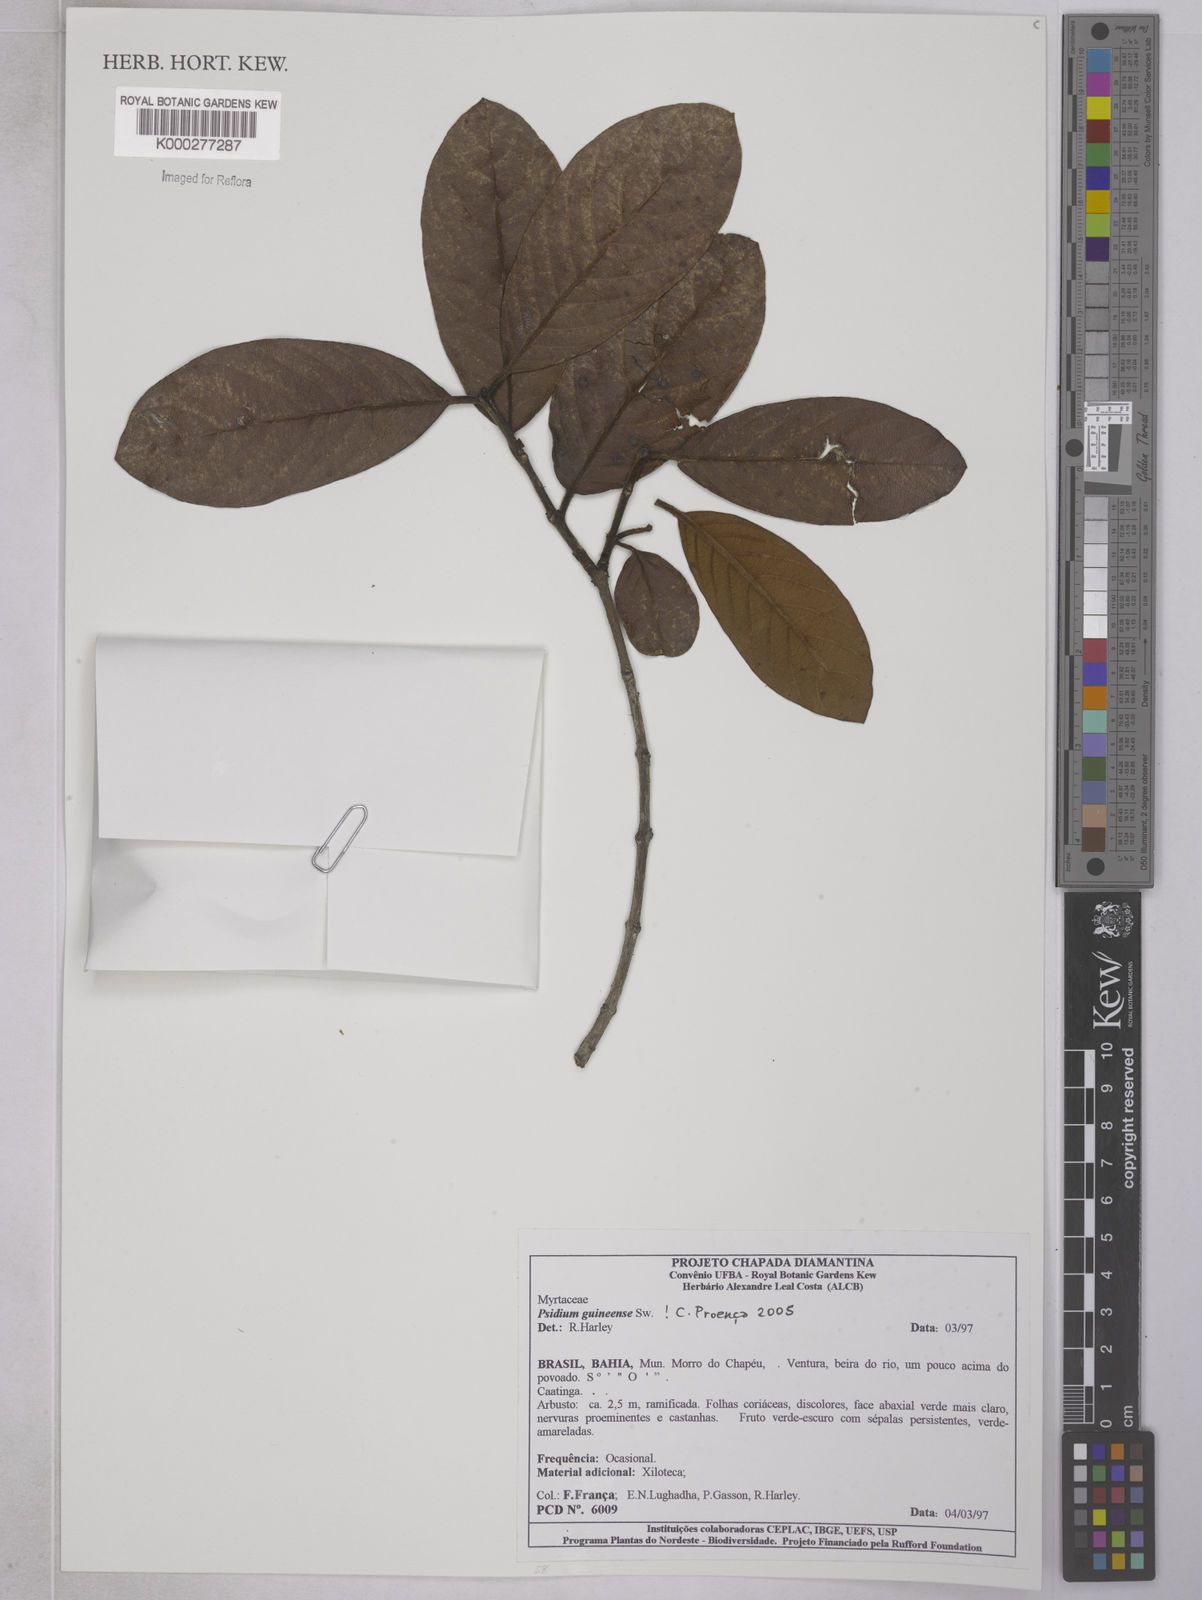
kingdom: Plantae
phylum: Tracheophyta
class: Magnoliopsida
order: Myrtales
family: Myrtaceae
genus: Psidium
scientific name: Psidium guineense
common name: Brazilian guava
